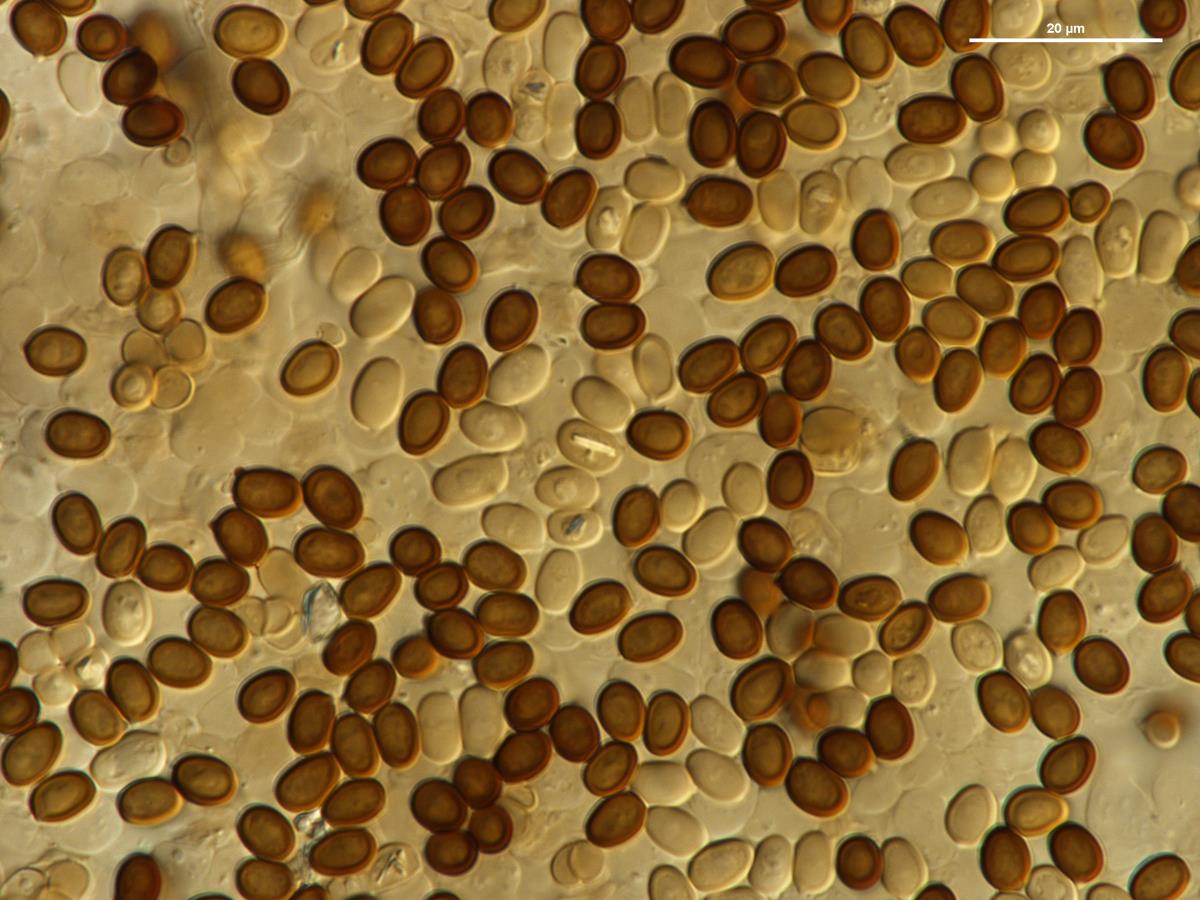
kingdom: Fungi
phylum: Basidiomycota
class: Agaricomycetes
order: Agaricales
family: Agaricaceae
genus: Agaricus
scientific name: Agaricus devoniensis
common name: Sandy mushroom
